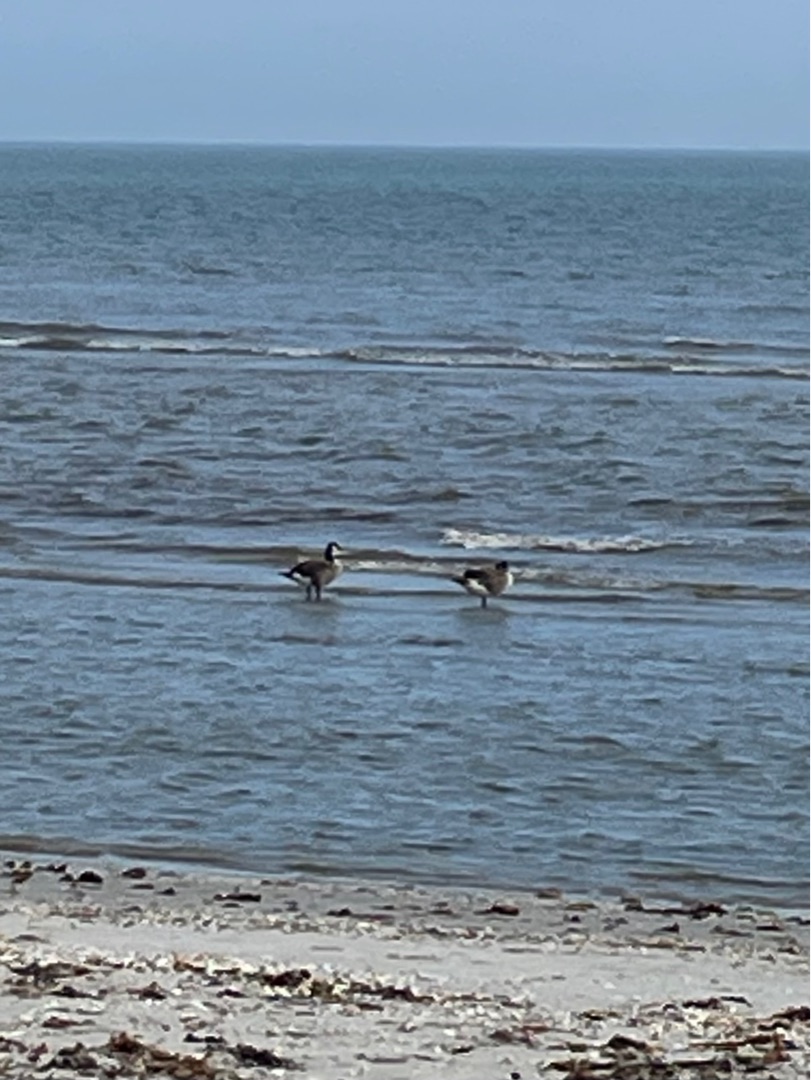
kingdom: Animalia
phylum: Chordata
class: Aves
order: Anseriformes
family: Anatidae
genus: Branta
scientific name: Branta canadensis
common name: Canadagås
